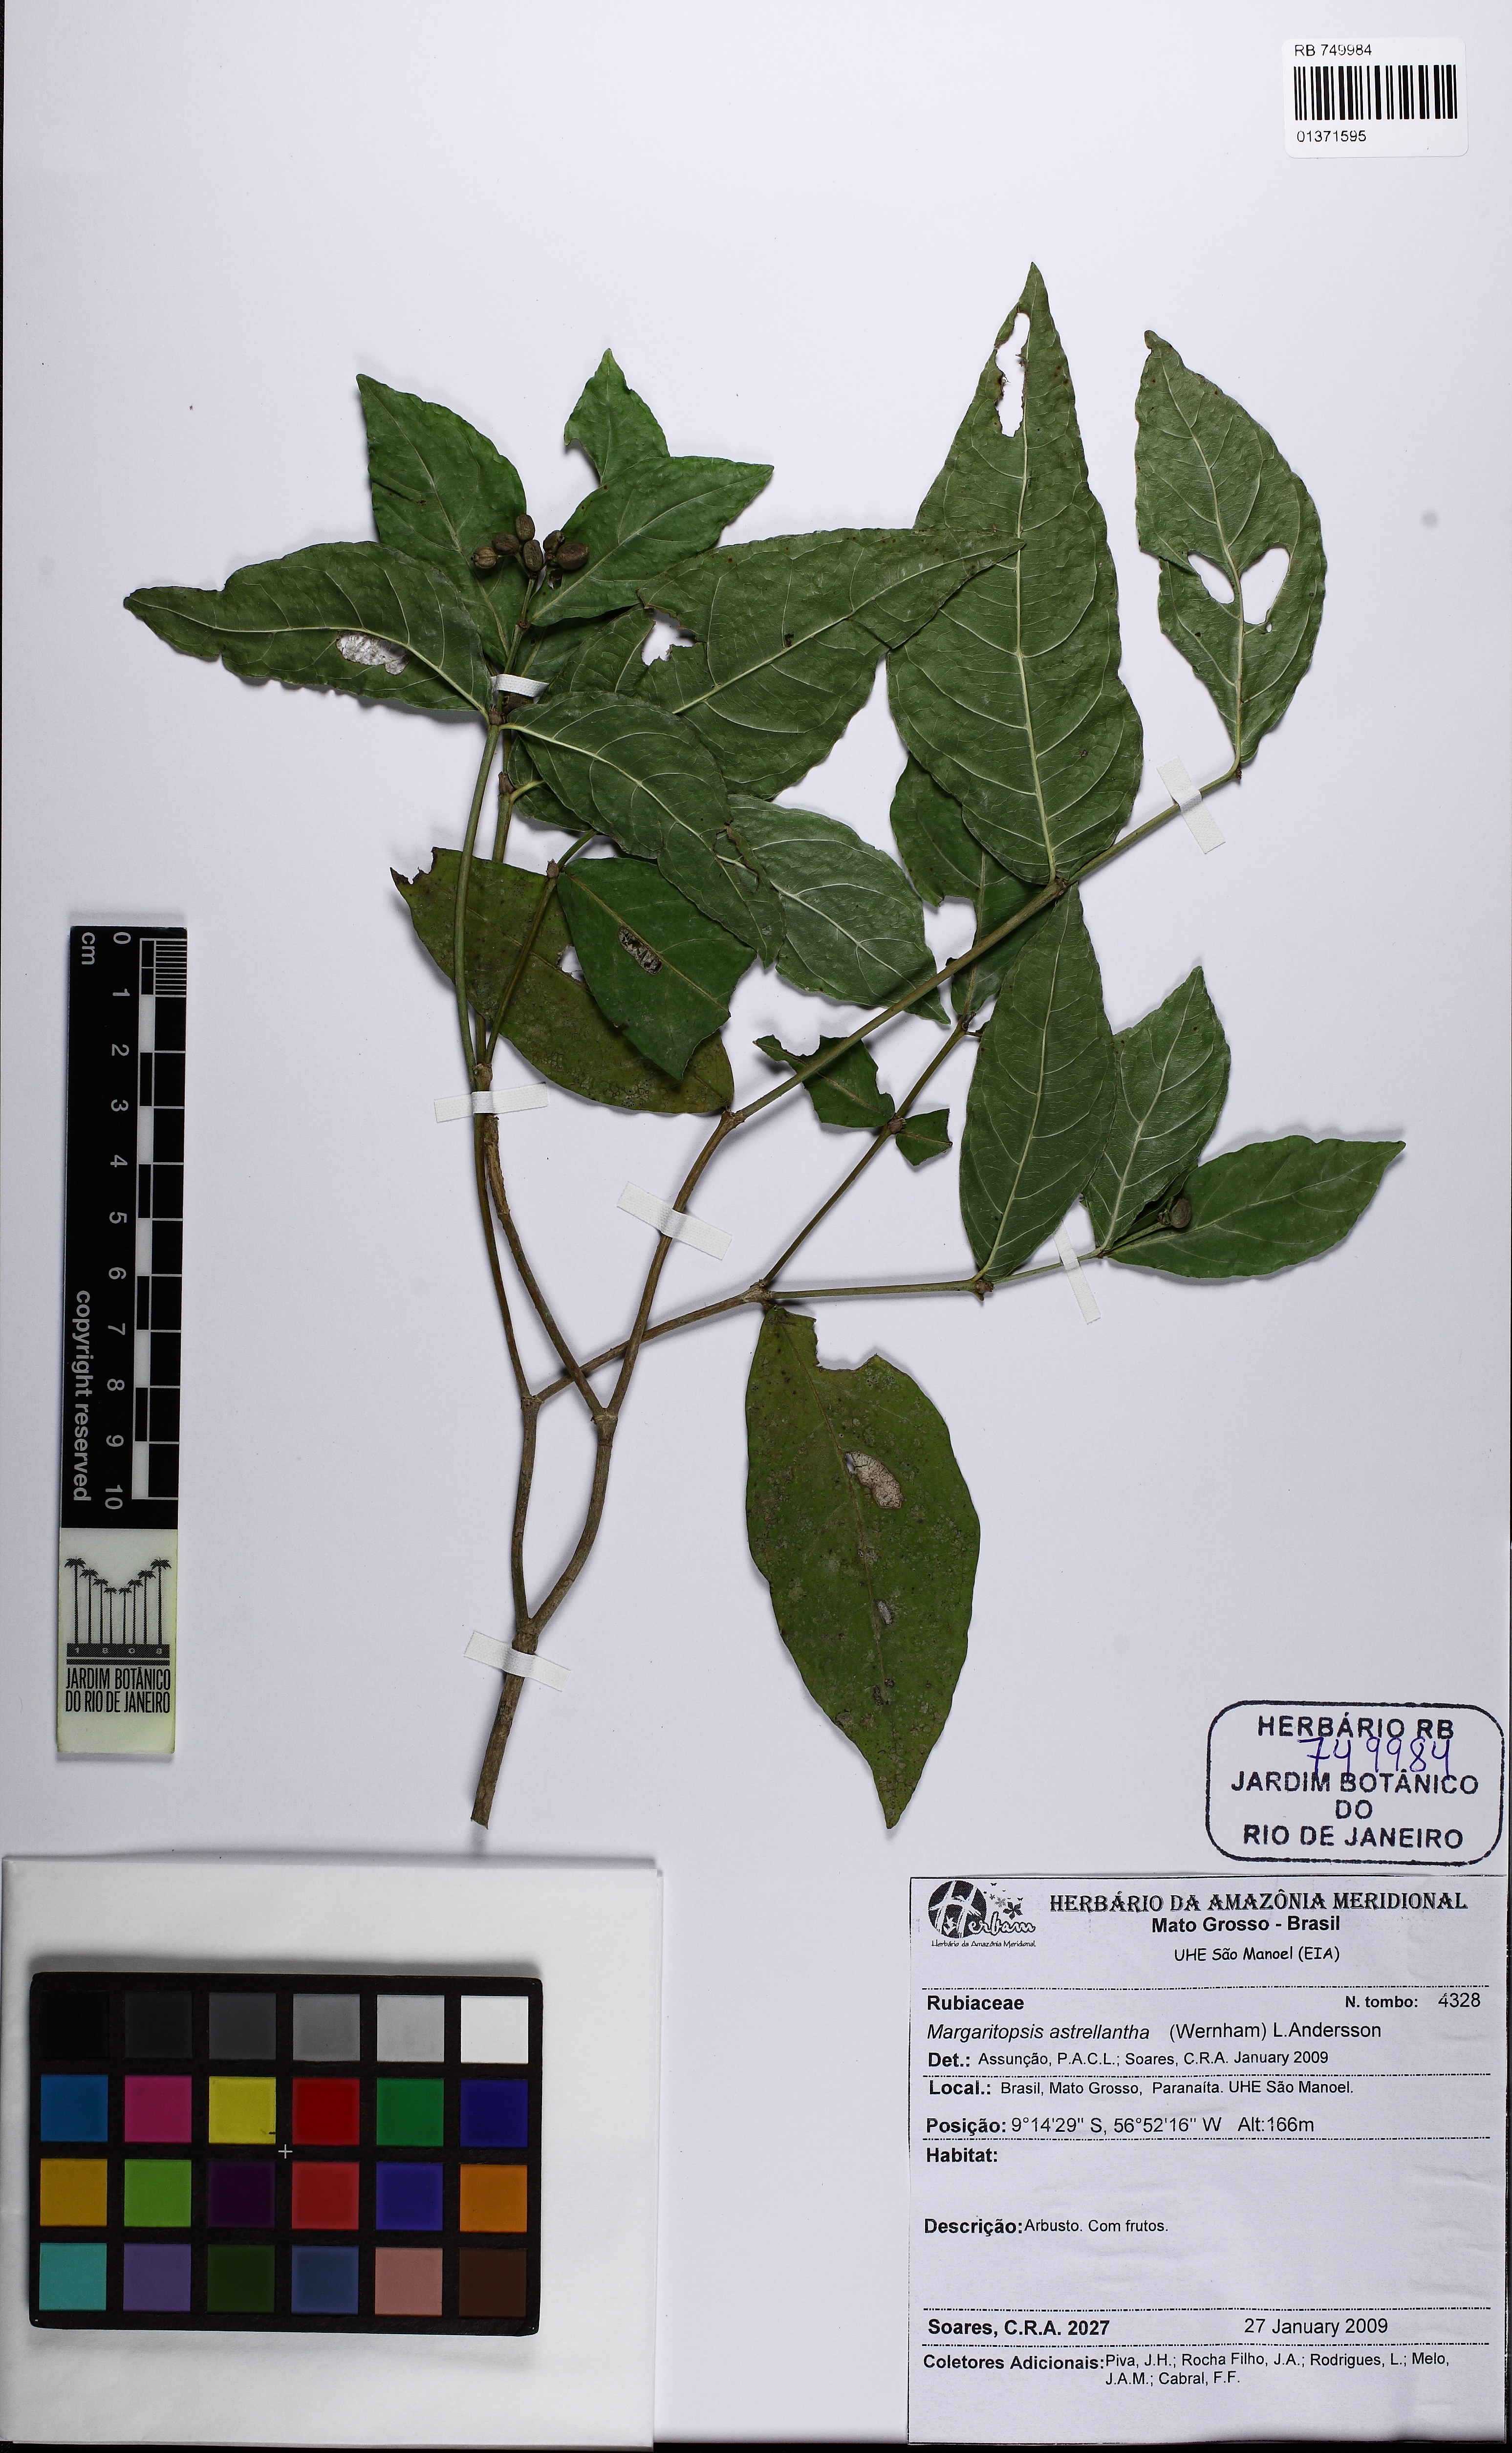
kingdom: Plantae
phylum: Tracheophyta
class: Magnoliopsida
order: Gentianales
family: Rubiaceae
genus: Rudgea
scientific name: Rudgea cornifolia
